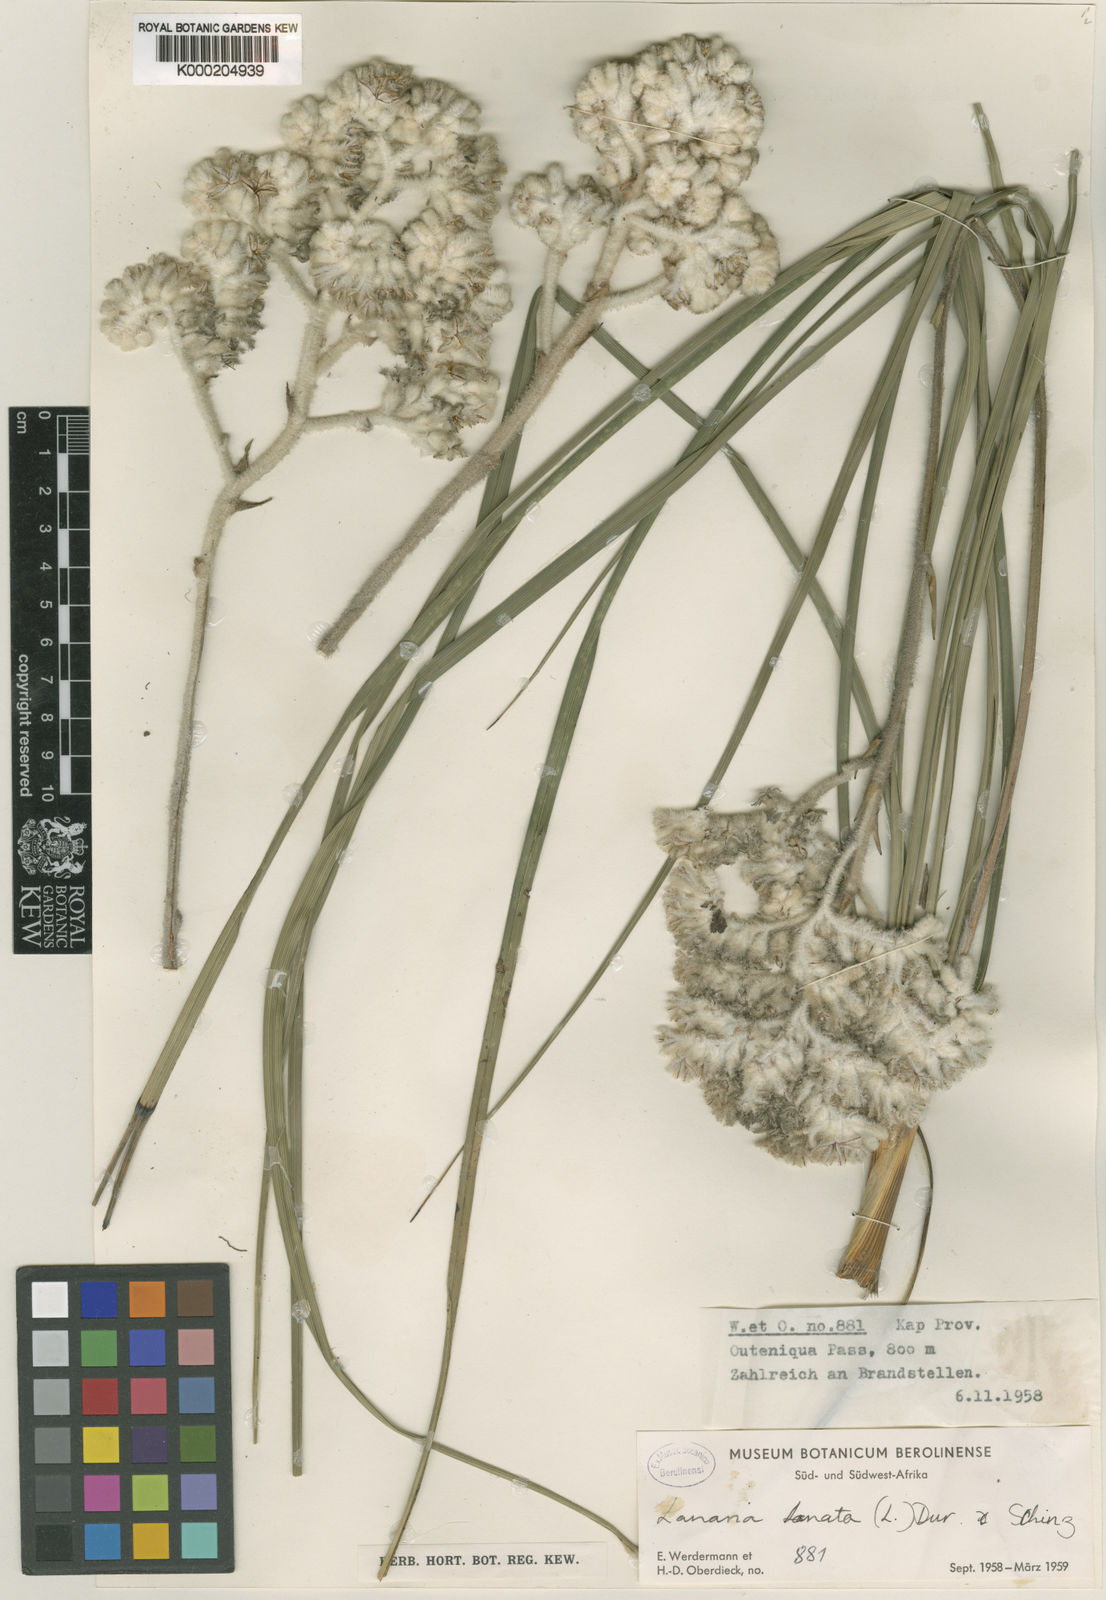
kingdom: Plantae
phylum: Tracheophyta
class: Liliopsida
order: Asparagales
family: Lanariaceae
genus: Lanaria
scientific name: Lanaria lanata
